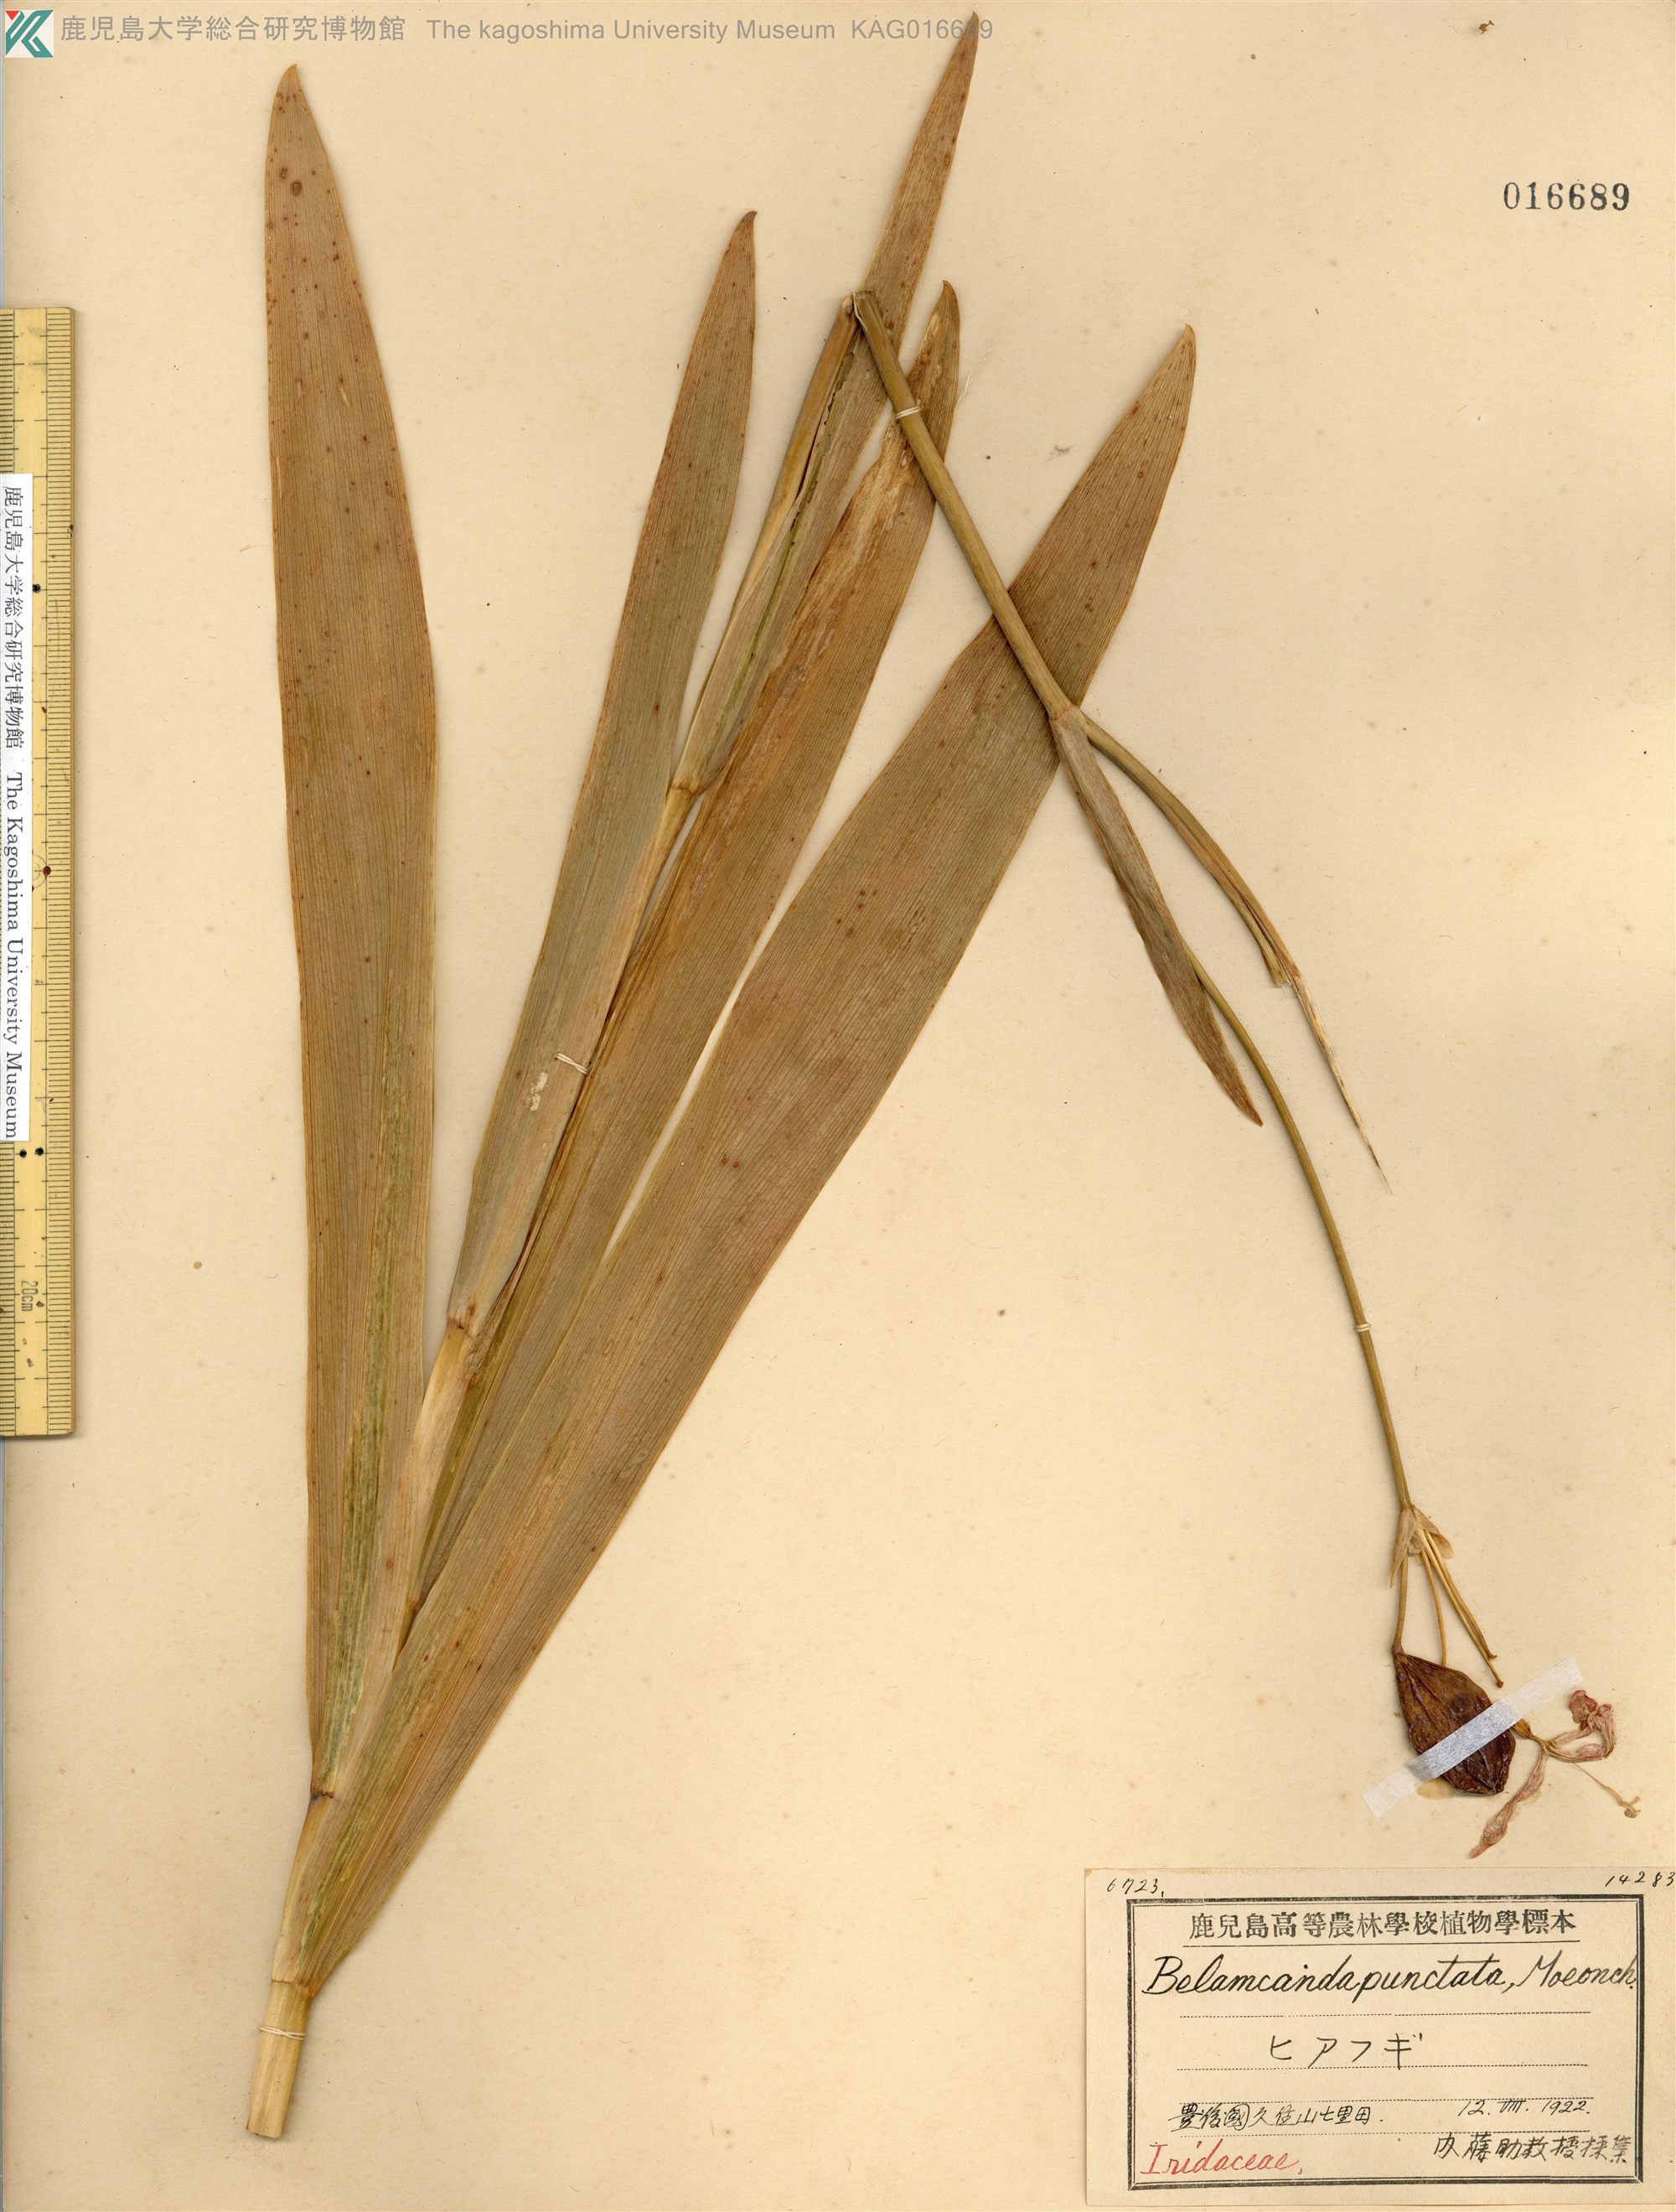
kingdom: Plantae
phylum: Tracheophyta
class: Liliopsida
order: Asparagales
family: Iridaceae
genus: Iris
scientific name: Iris domestica
